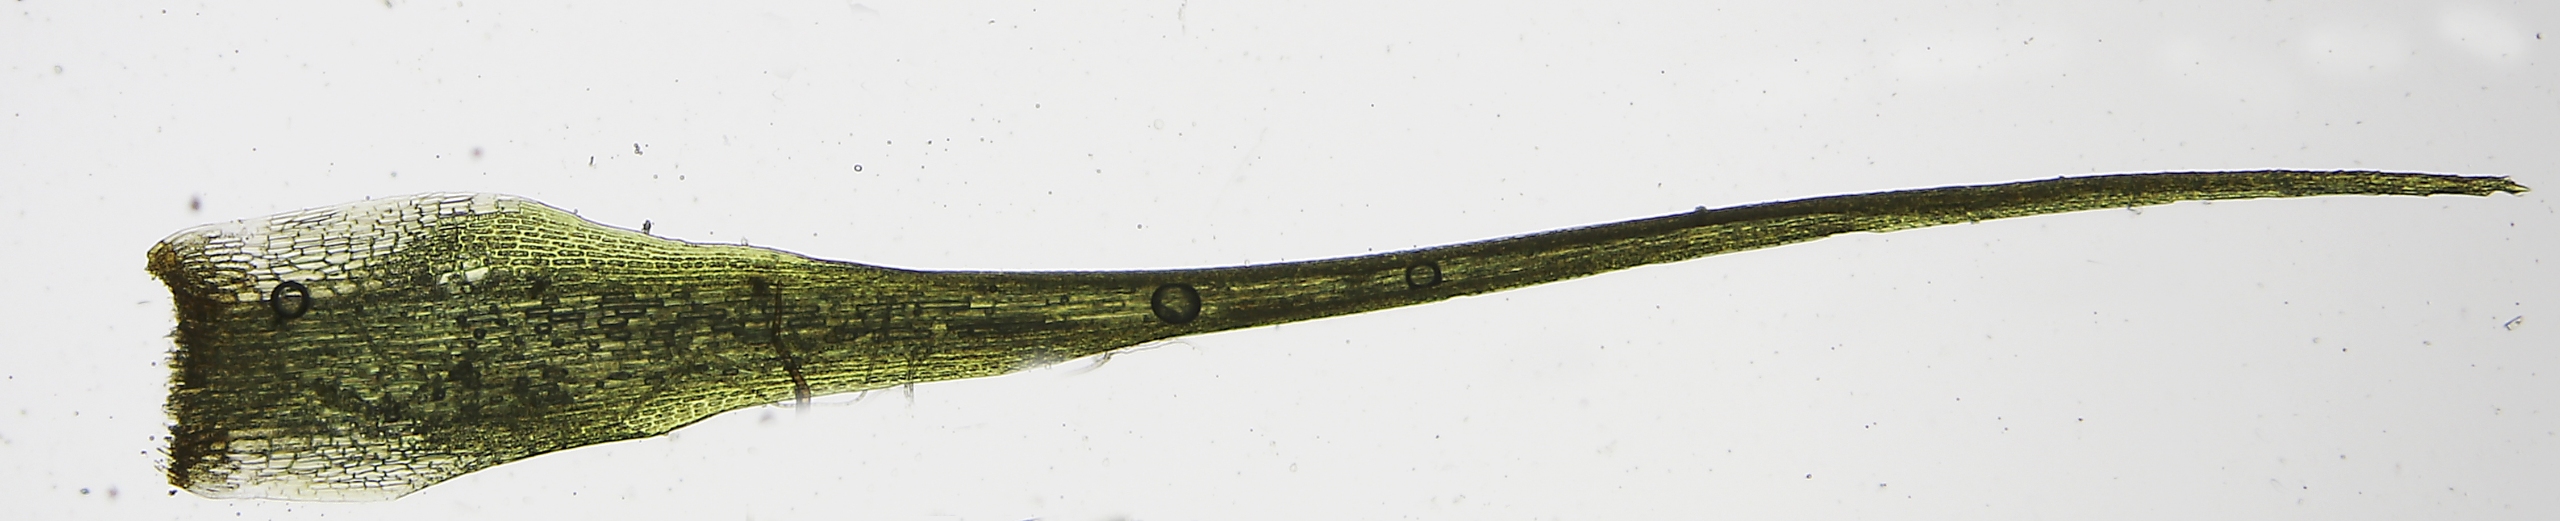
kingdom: Plantae
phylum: Bryophyta
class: Bryopsida
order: Dicranales
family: Leucobryaceae
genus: Campylopus
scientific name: Campylopus pyriformis
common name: Almindelig bredribbe
